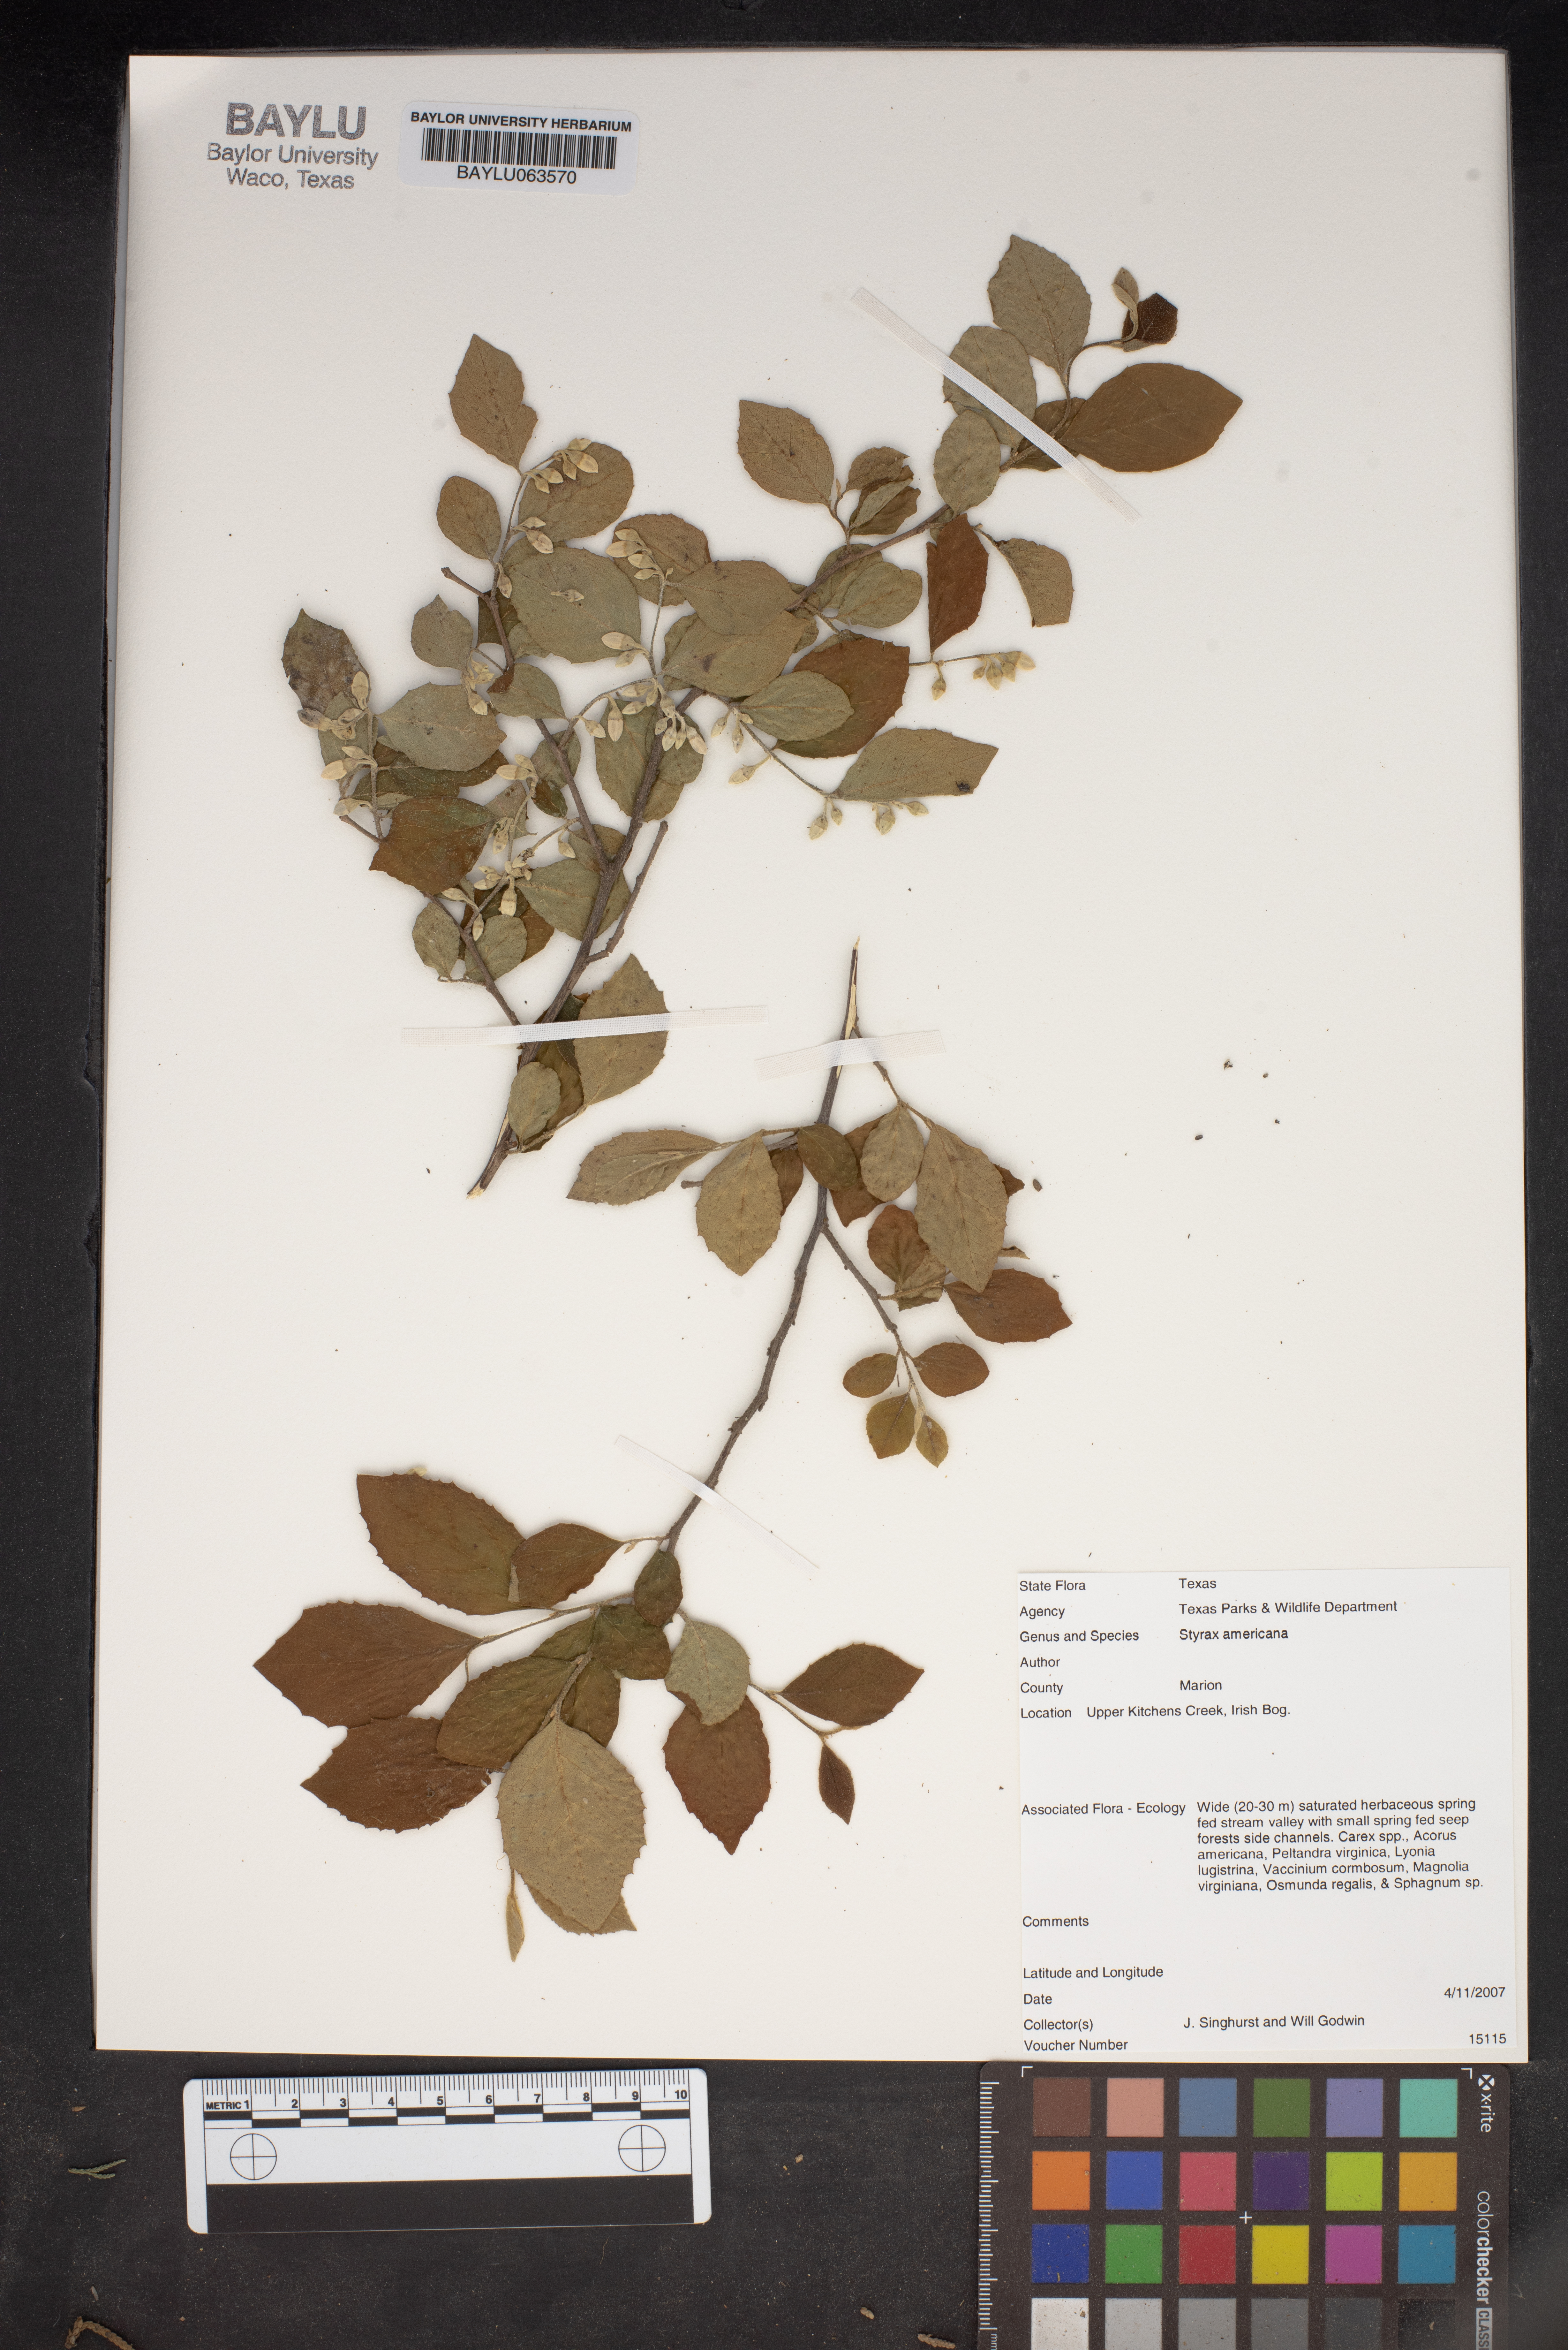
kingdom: Plantae
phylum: Tracheophyta
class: Magnoliopsida
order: Ericales
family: Styracaceae
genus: Styrax
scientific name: Styrax americanus
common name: American snowbell
